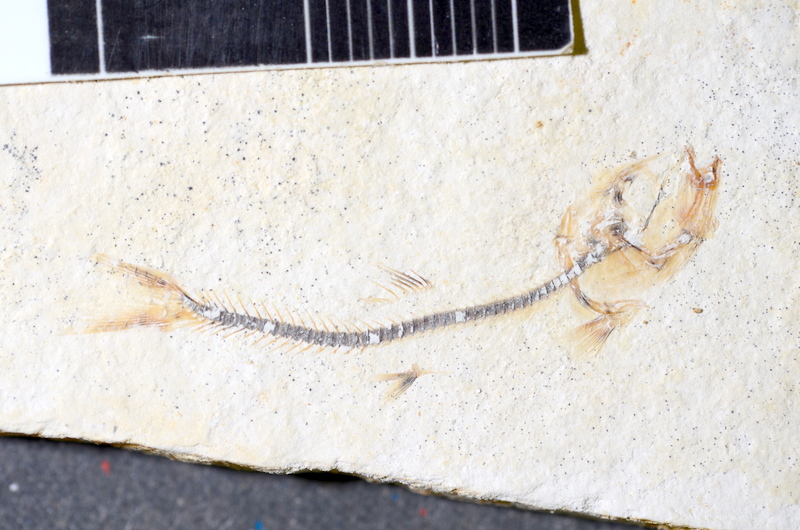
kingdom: Animalia
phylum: Chordata
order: Salmoniformes
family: Orthogonikleithridae
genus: Orthogonikleithrus
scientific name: Orthogonikleithrus hoelli
